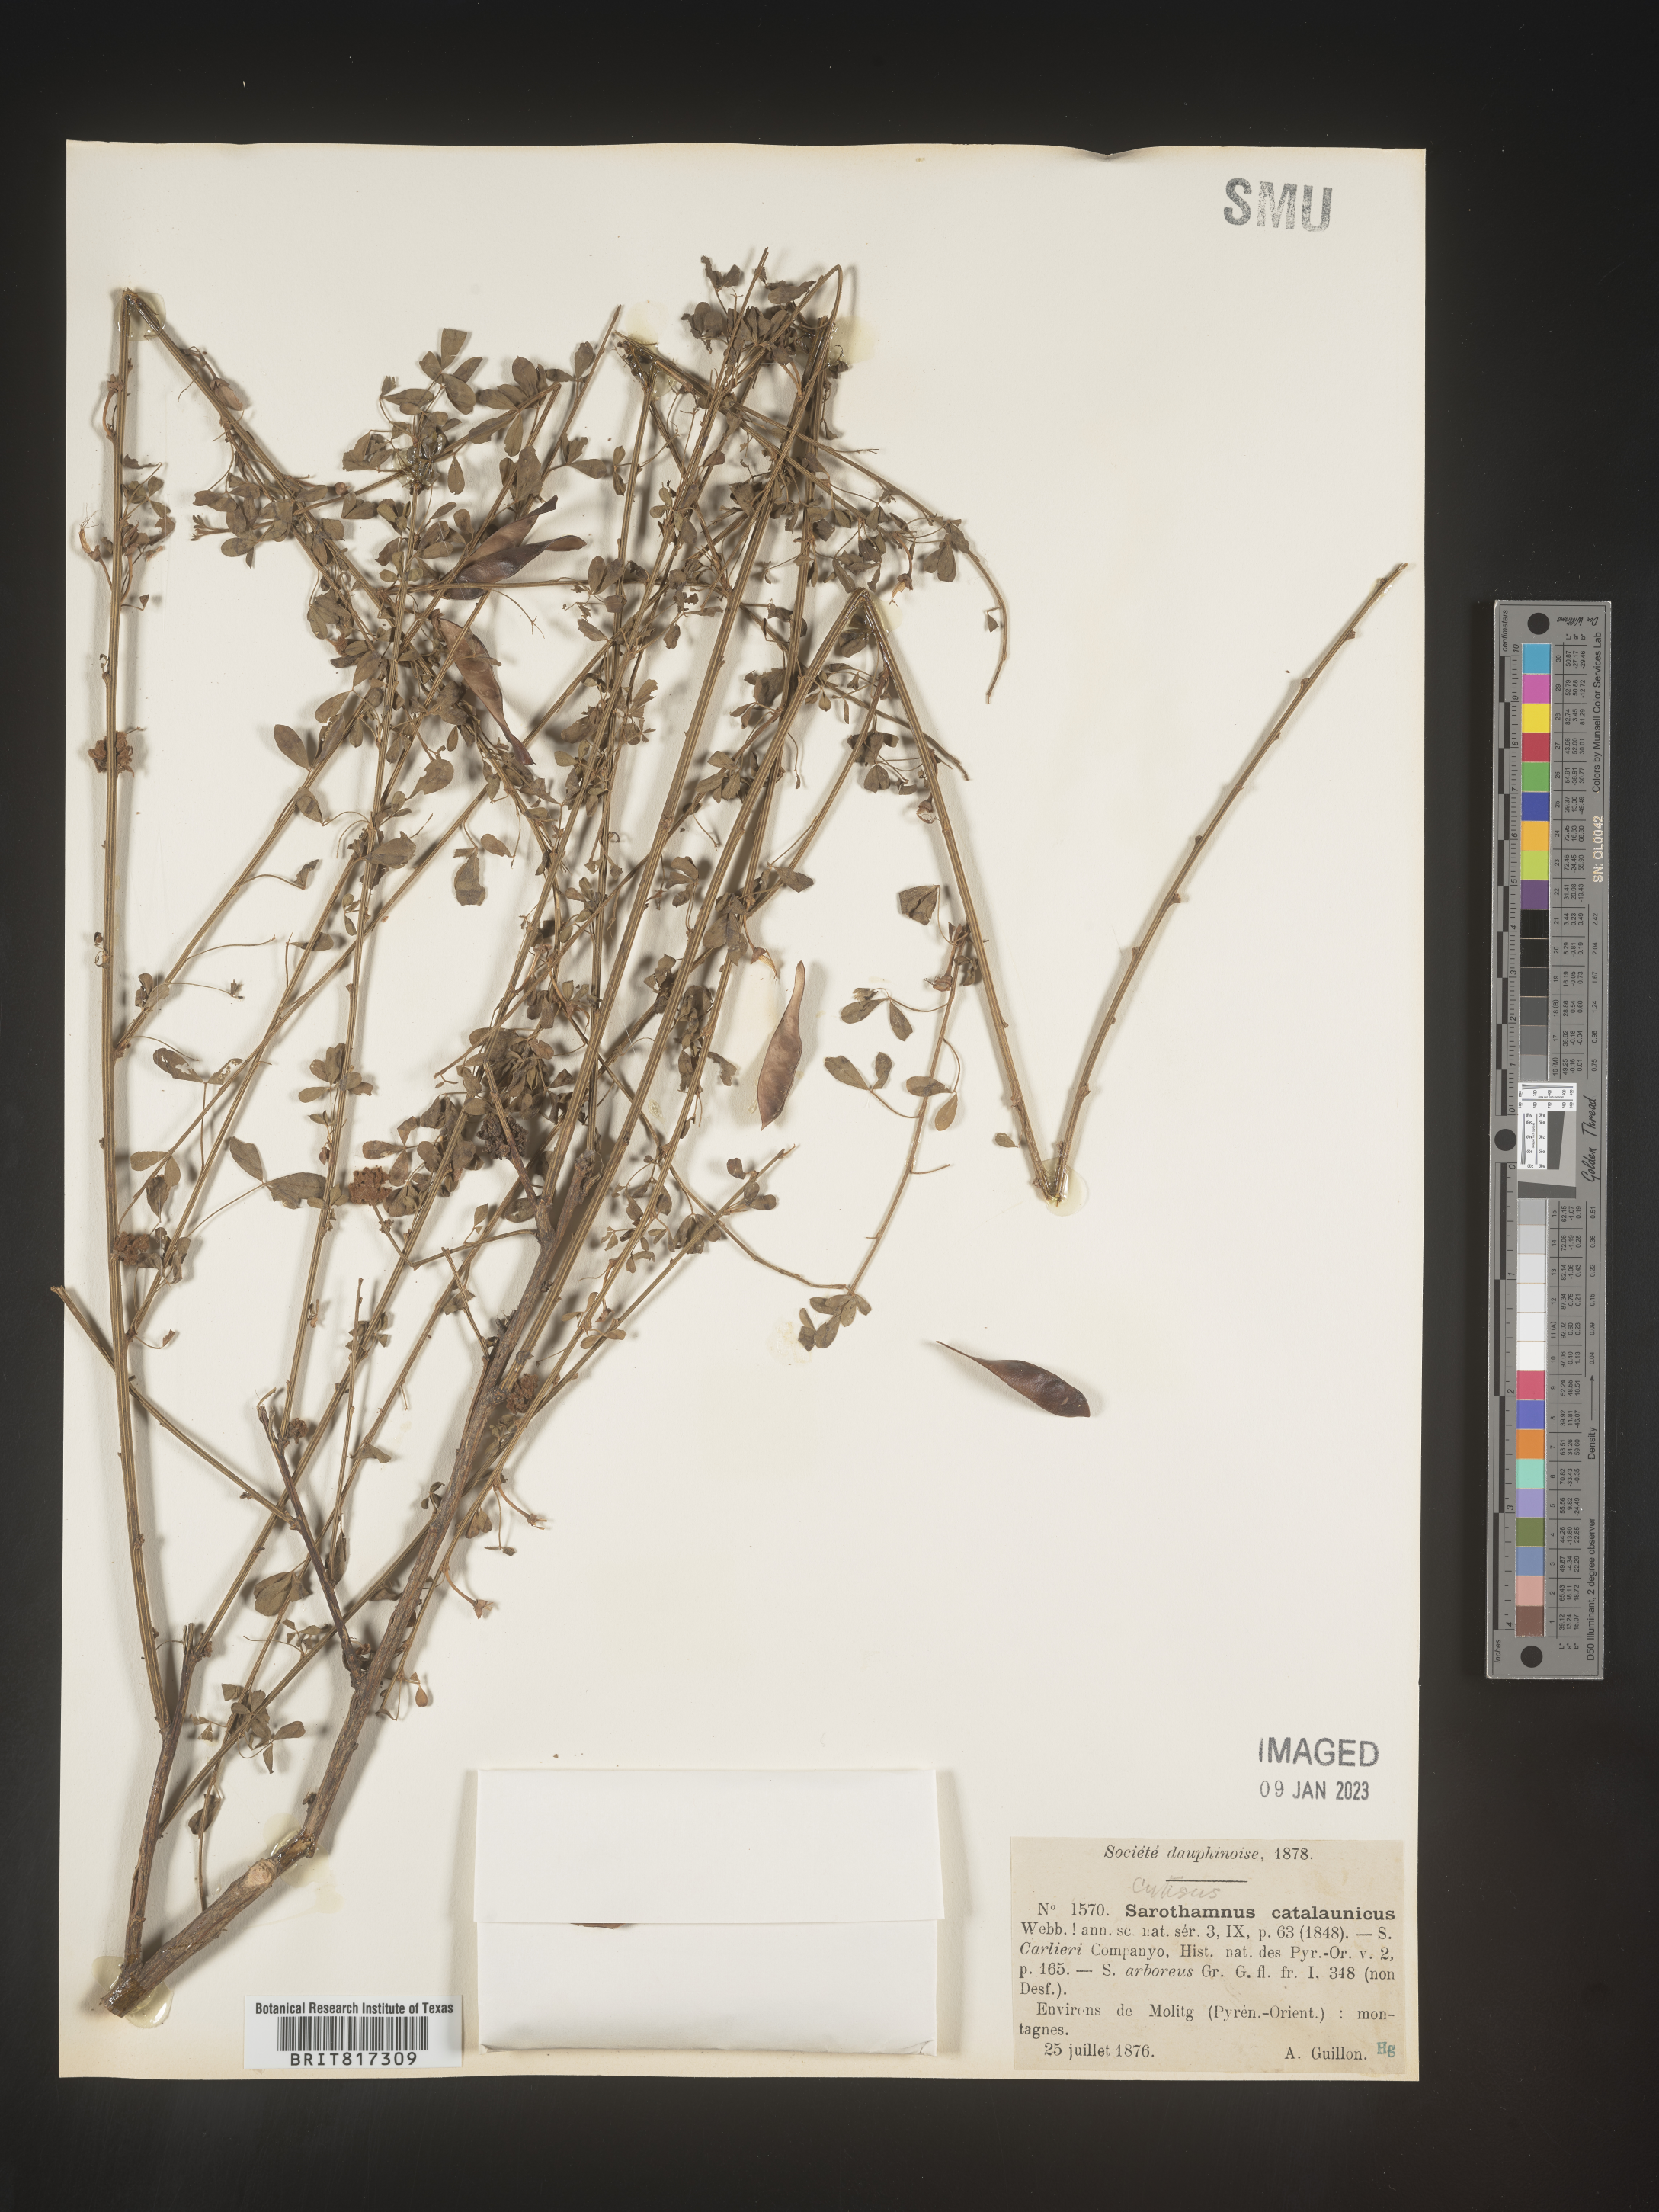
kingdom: Plantae
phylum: Tracheophyta
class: Magnoliopsida
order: Fabales
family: Fabaceae
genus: Cytisus
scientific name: Cytisus
